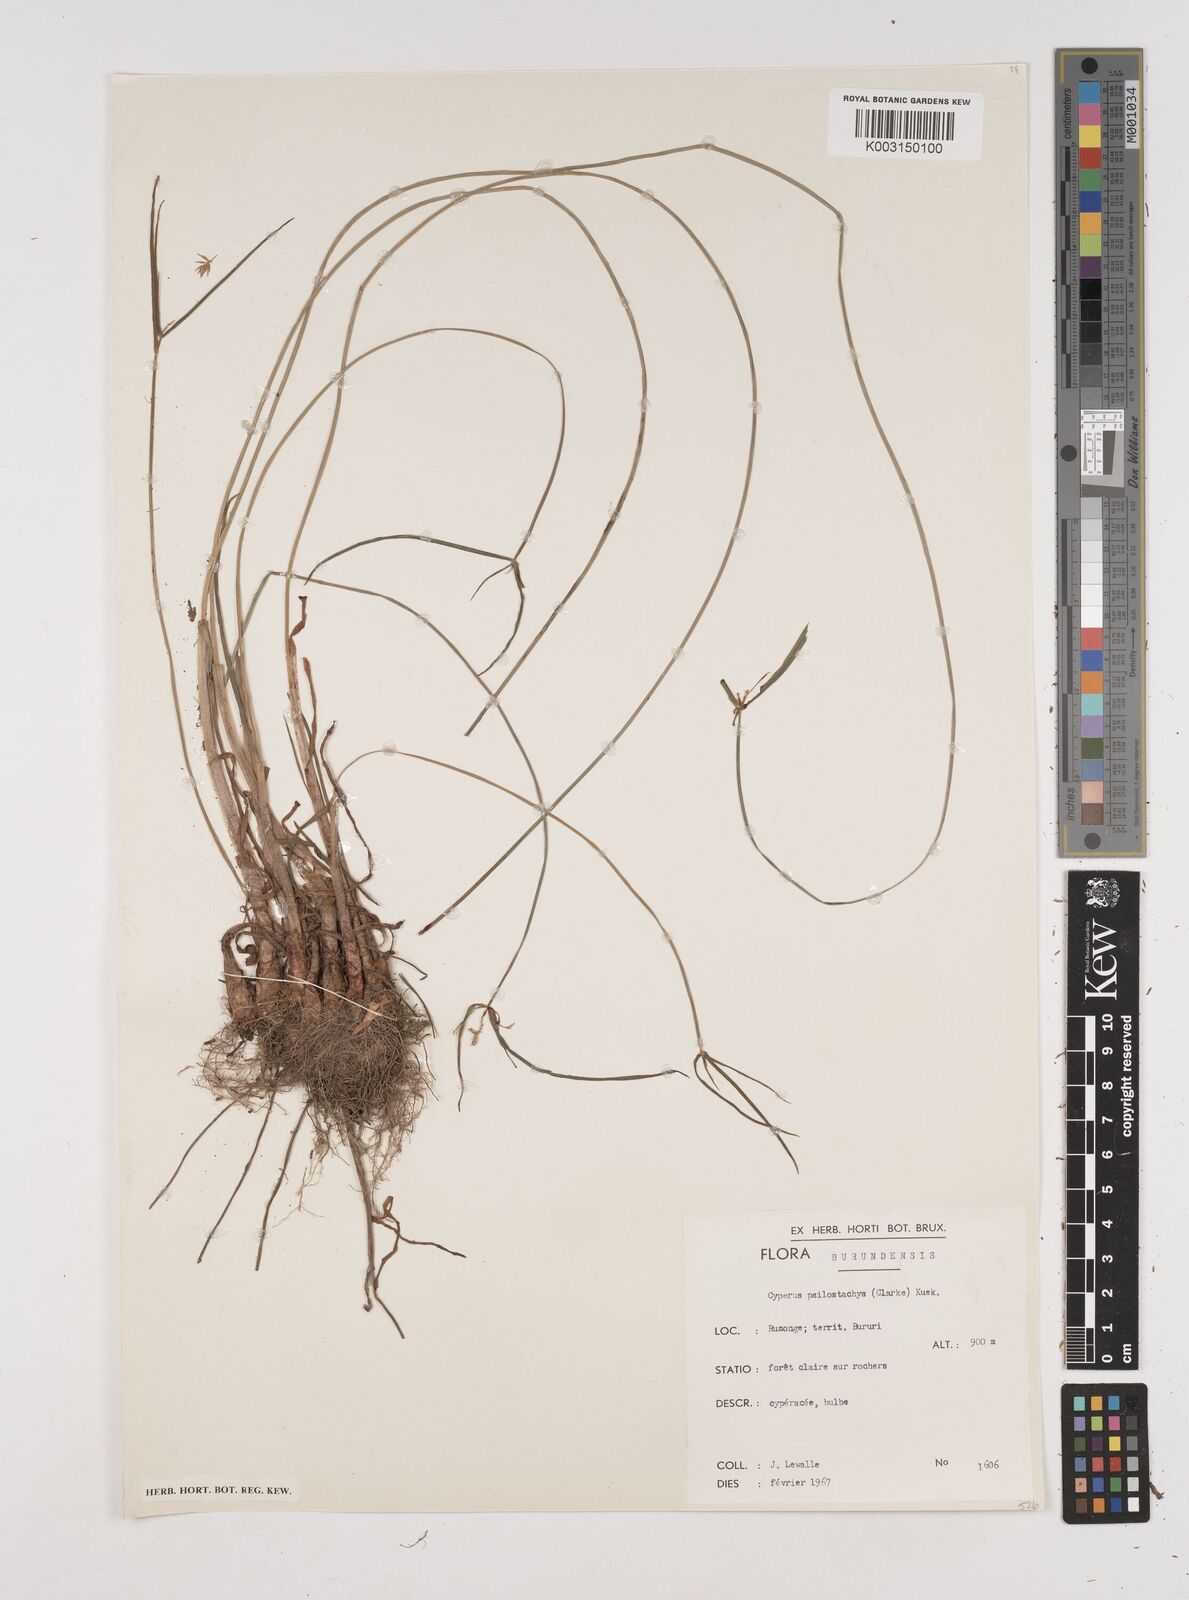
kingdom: Plantae
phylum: Tracheophyta
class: Liliopsida
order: Poales
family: Cyperaceae
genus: Cyperus
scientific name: Cyperus trigonellus
